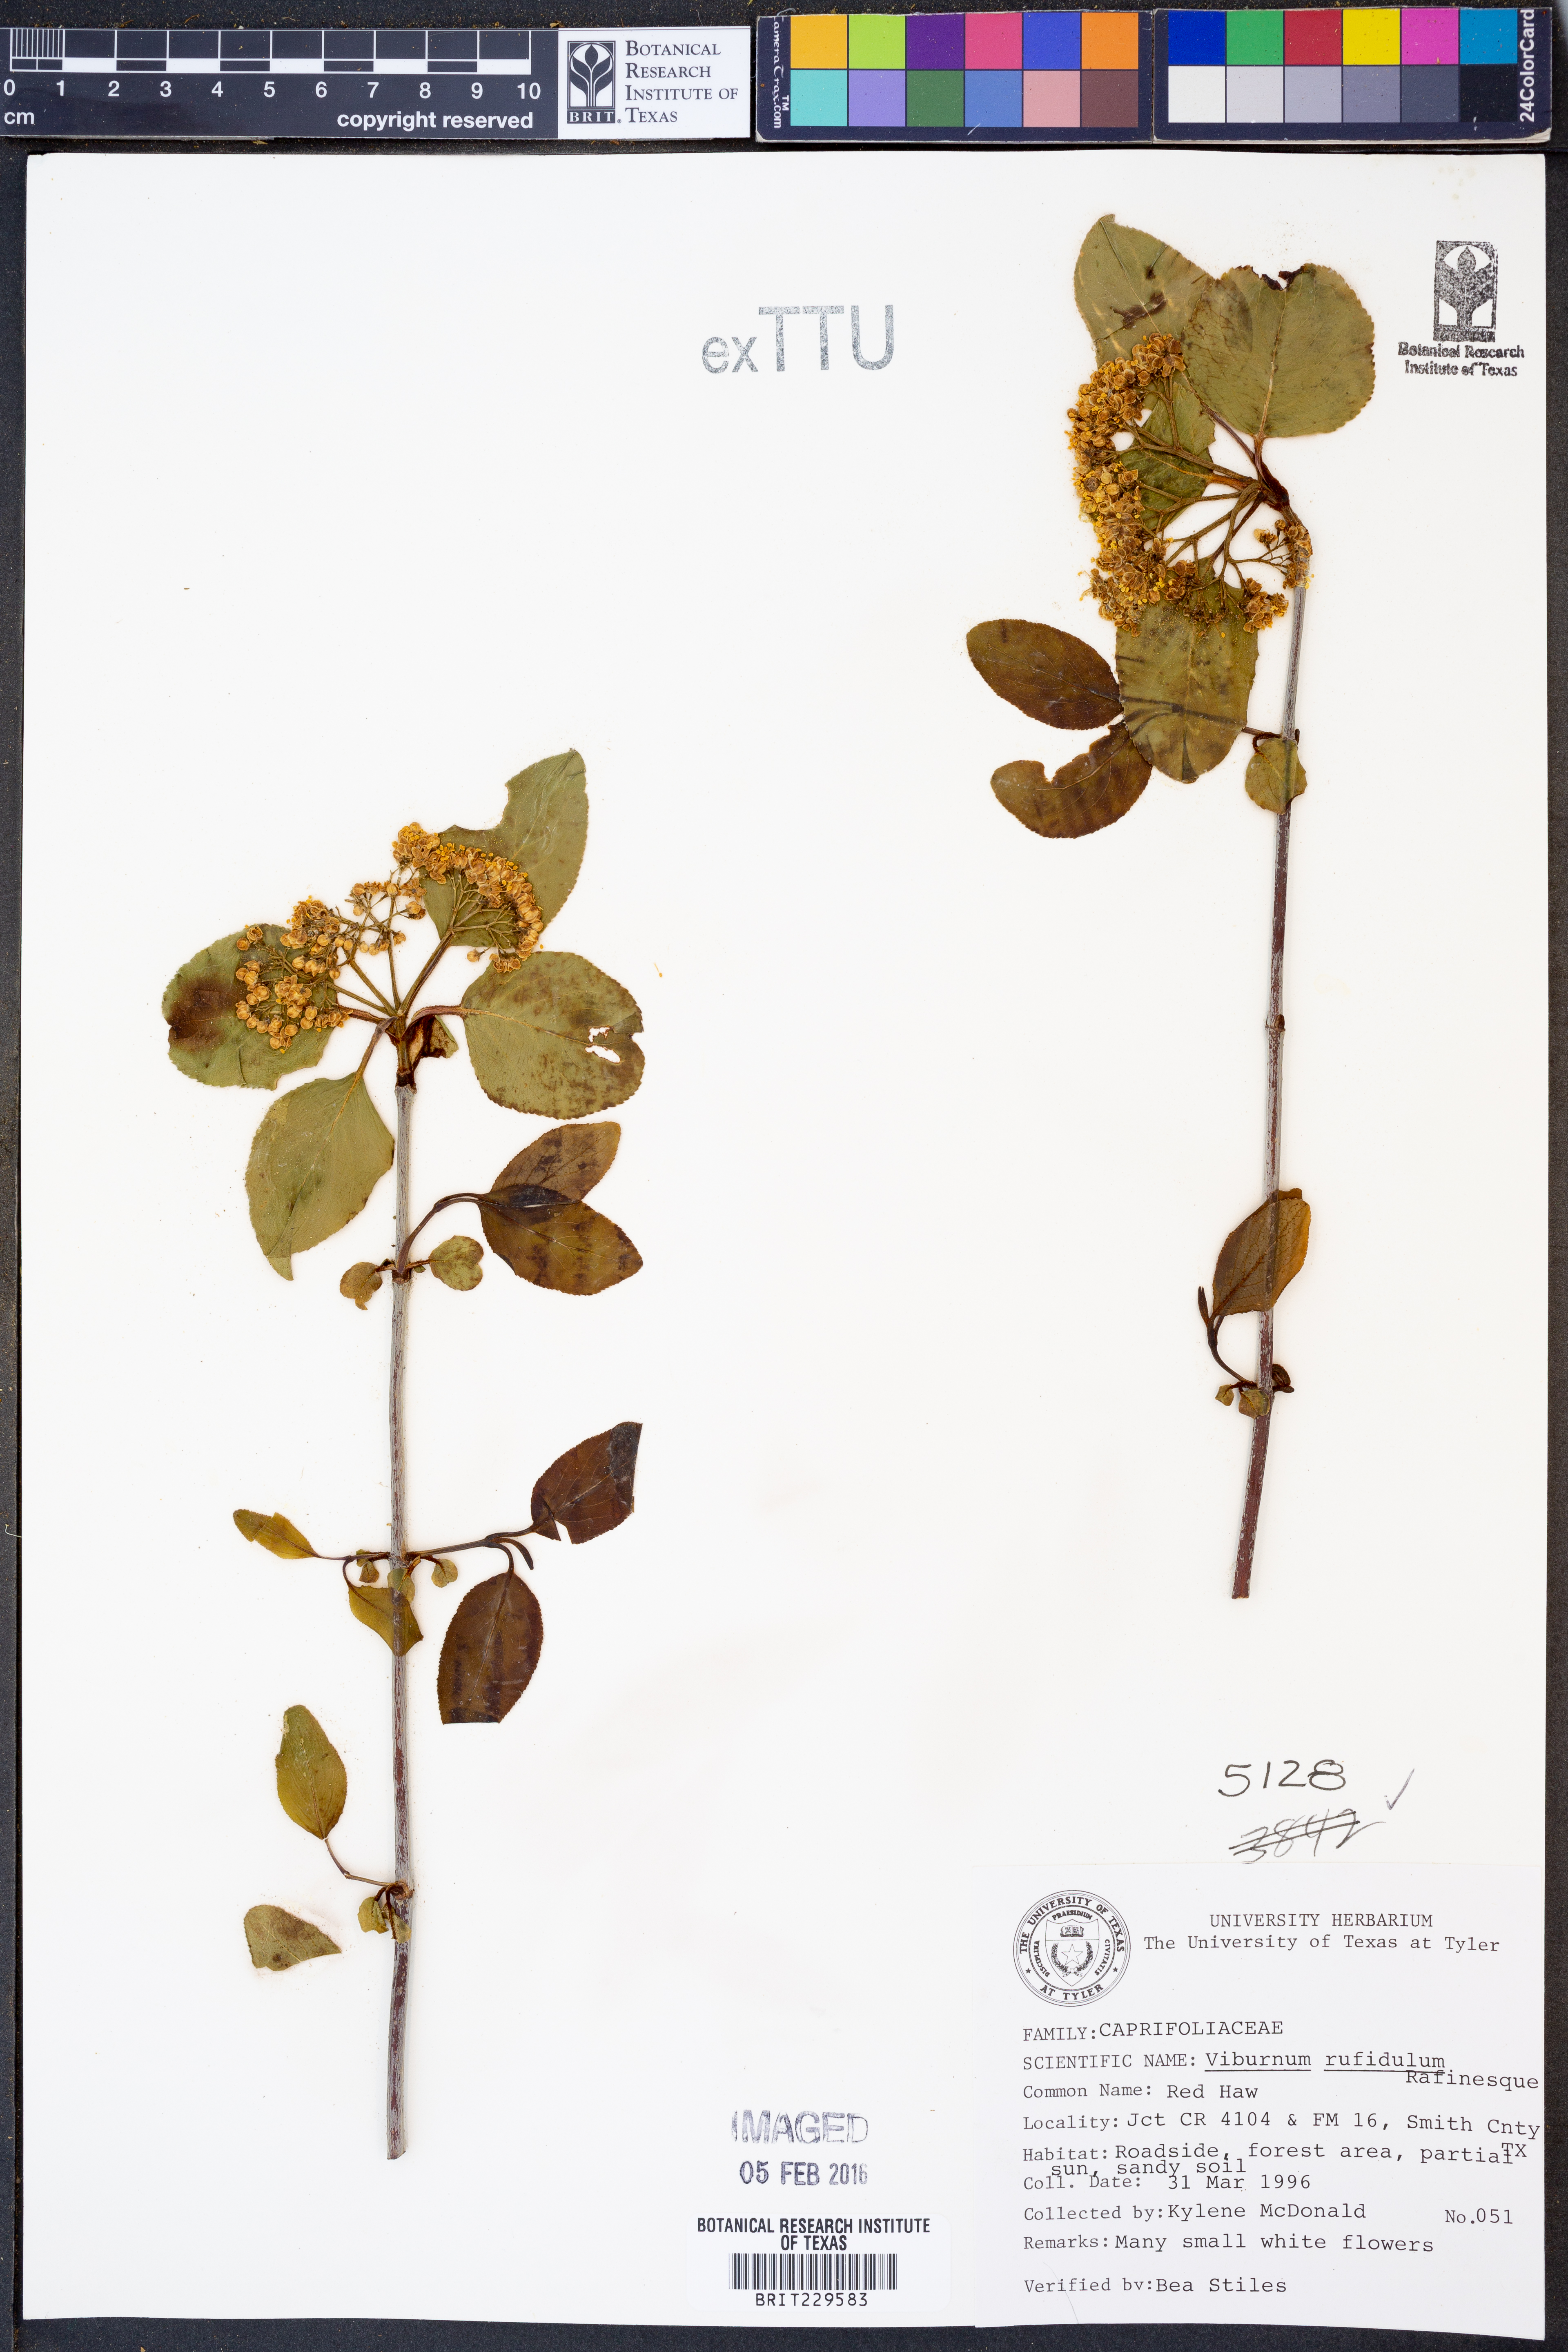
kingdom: Plantae
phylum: Tracheophyta
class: Magnoliopsida
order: Dipsacales
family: Viburnaceae
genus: Viburnum
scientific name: Viburnum rufidulum
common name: Blue haw
